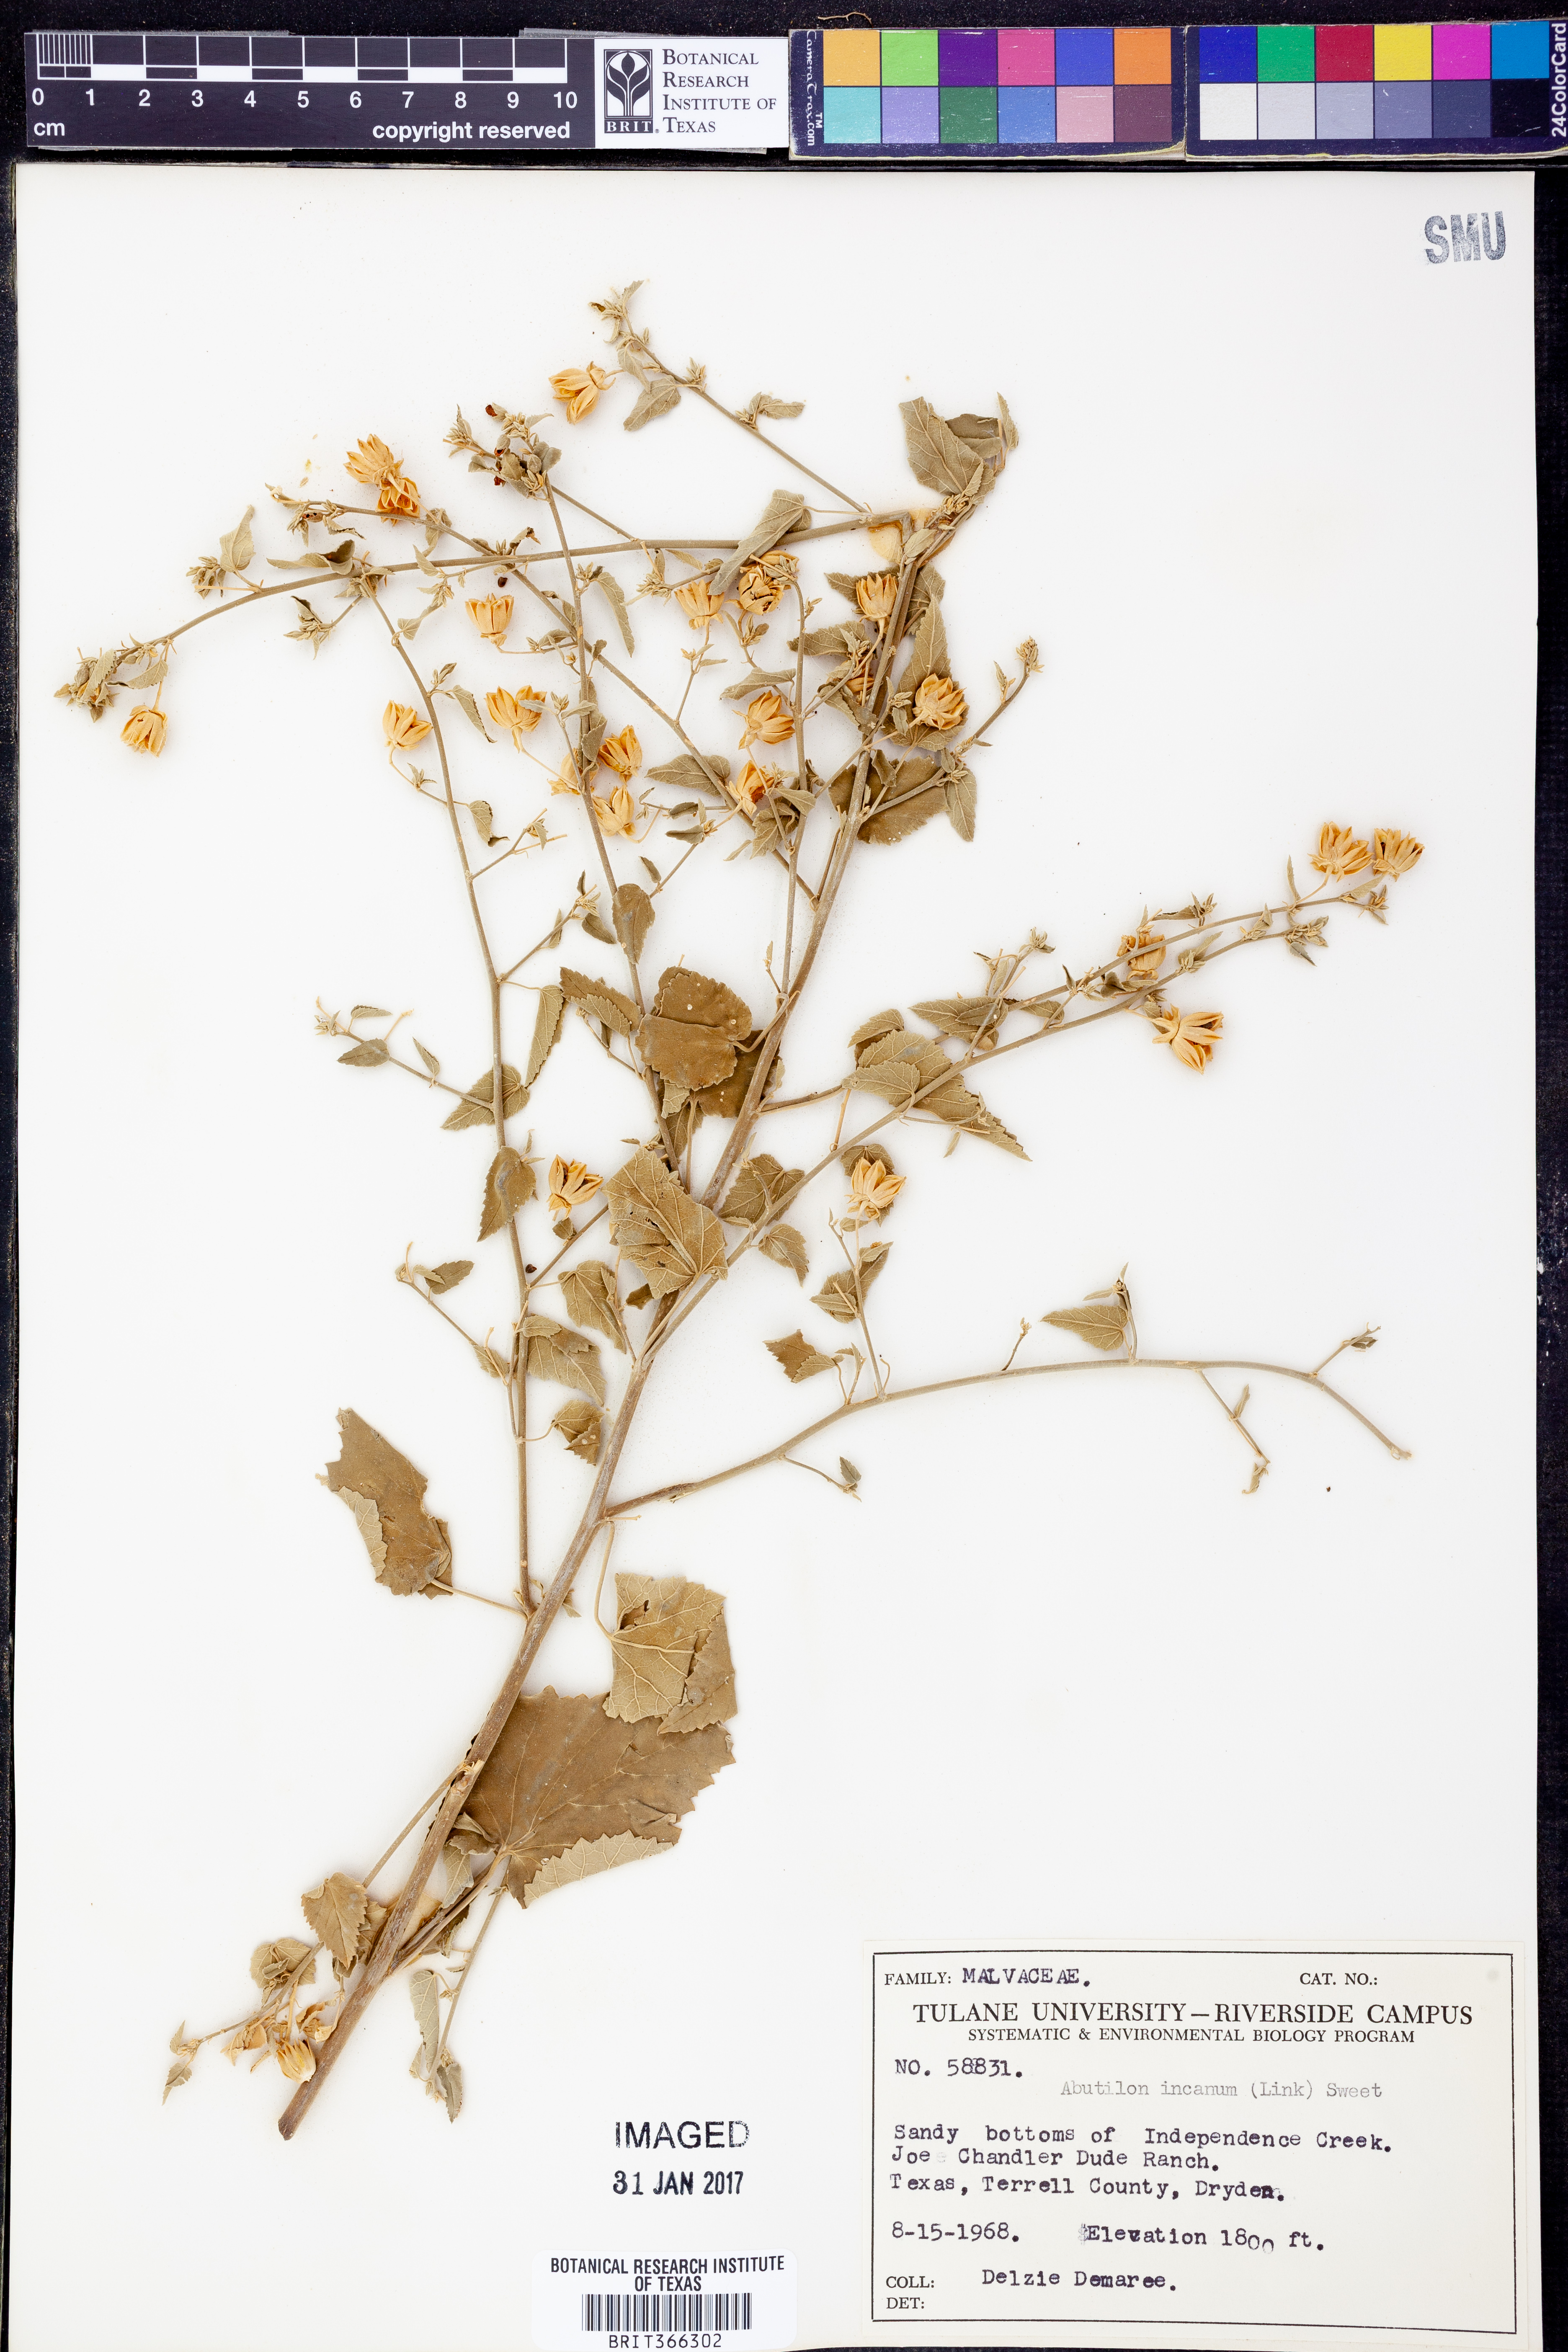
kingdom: Plantae
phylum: Tracheophyta
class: Magnoliopsida
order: Malvales
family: Malvaceae
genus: Abutilon
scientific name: Abutilon incanum
